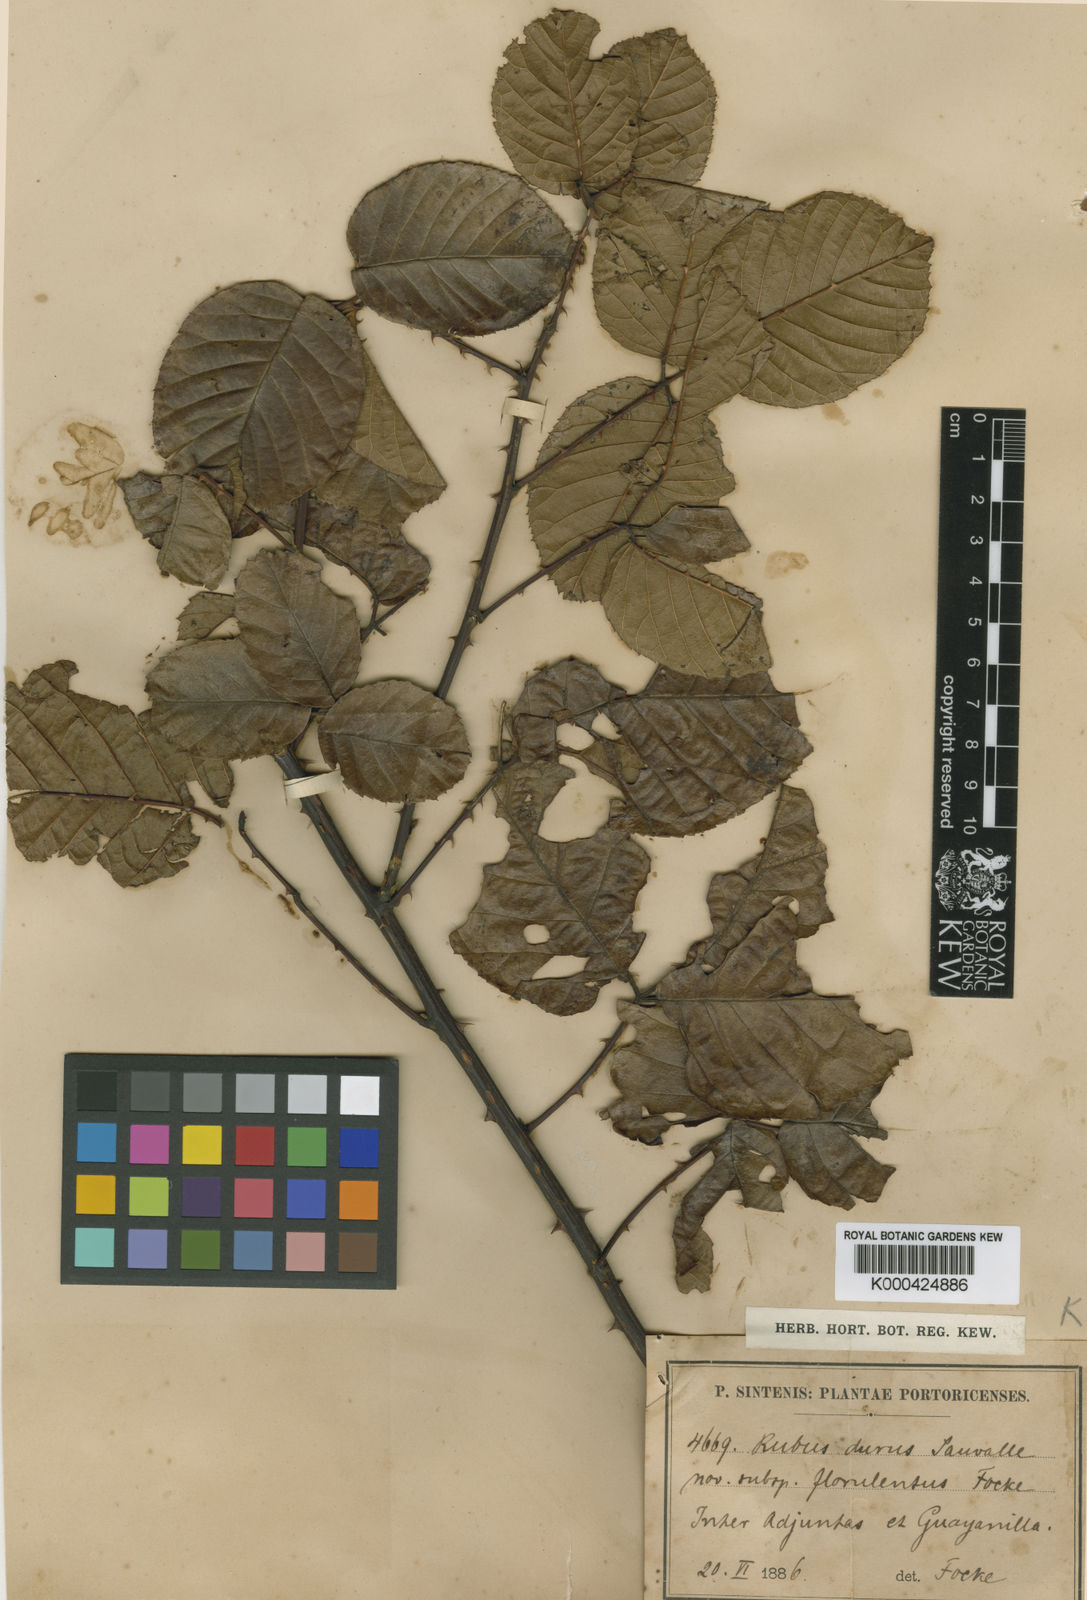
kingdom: Plantae
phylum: Tracheophyta
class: Magnoliopsida
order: Rosales
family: Rosaceae
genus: Rubus
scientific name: Rubus florulentus
